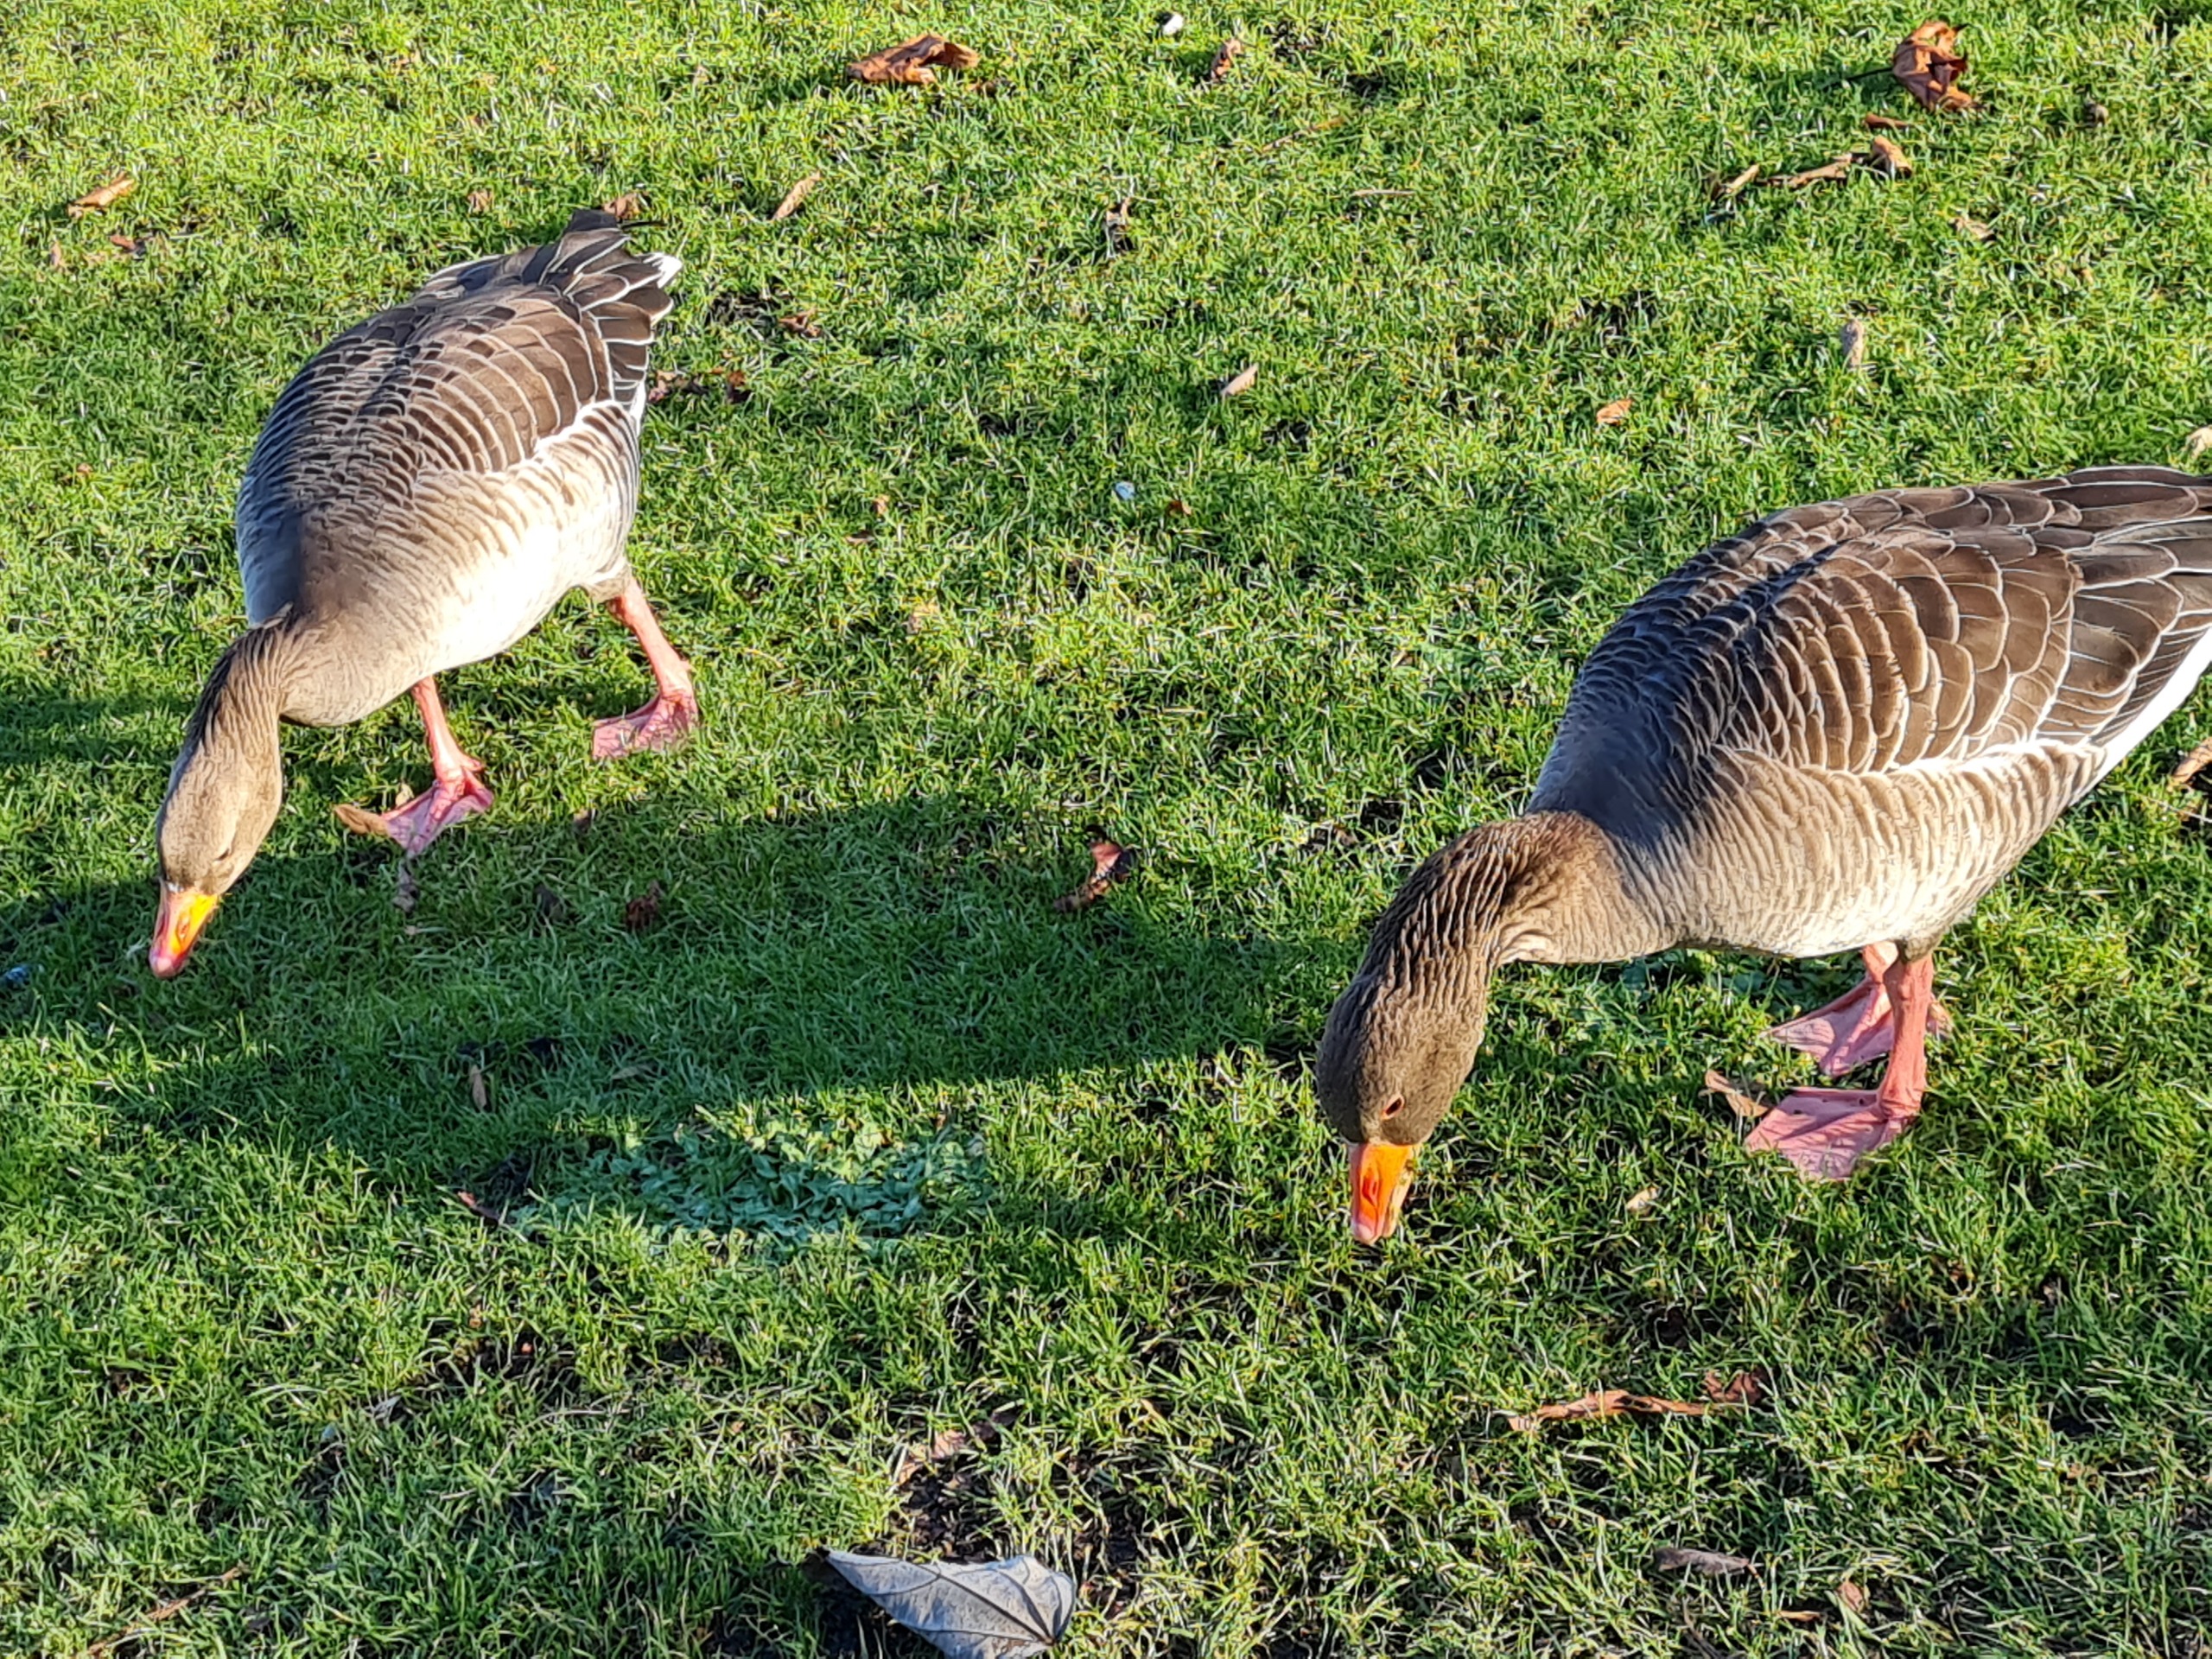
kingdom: Animalia
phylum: Chordata
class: Aves
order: Anseriformes
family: Anatidae
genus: Anser
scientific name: Anser anser
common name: Grågås
